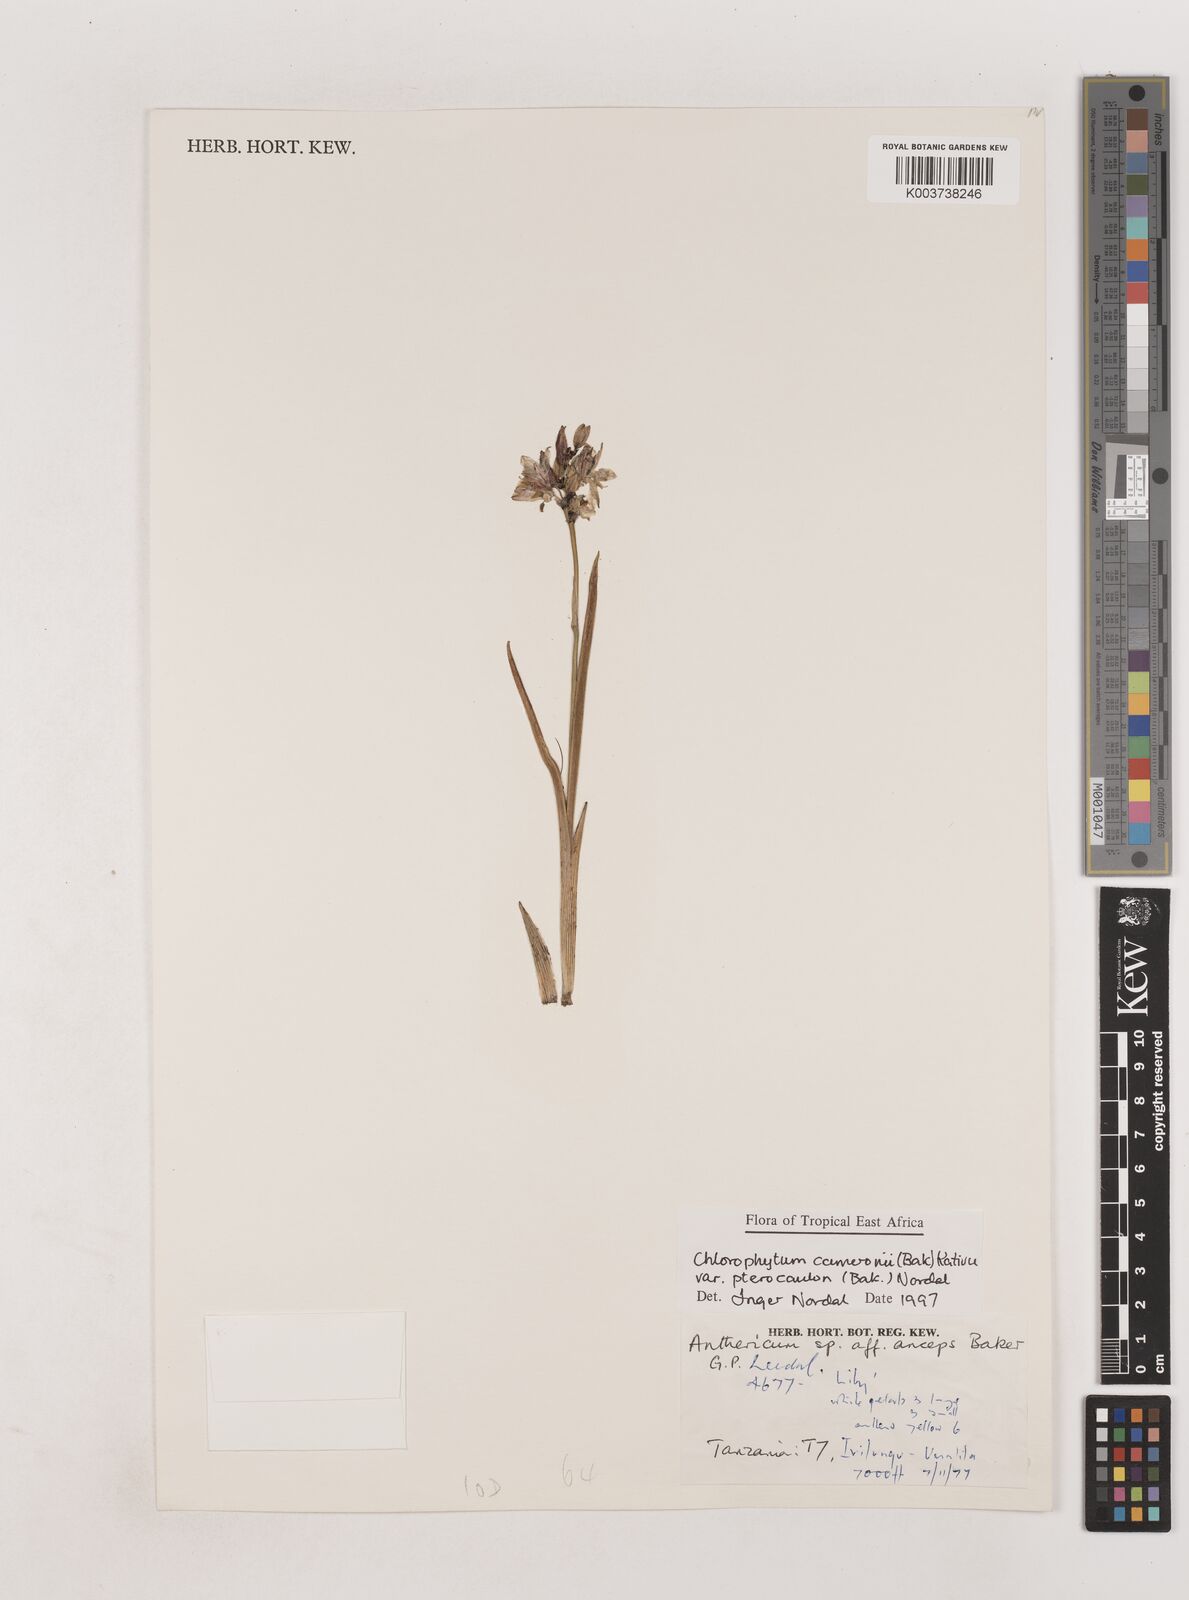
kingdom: Plantae
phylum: Tracheophyta
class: Liliopsida
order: Asparagales
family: Asparagaceae
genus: Chlorophytum
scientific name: Chlorophytum cameronii
